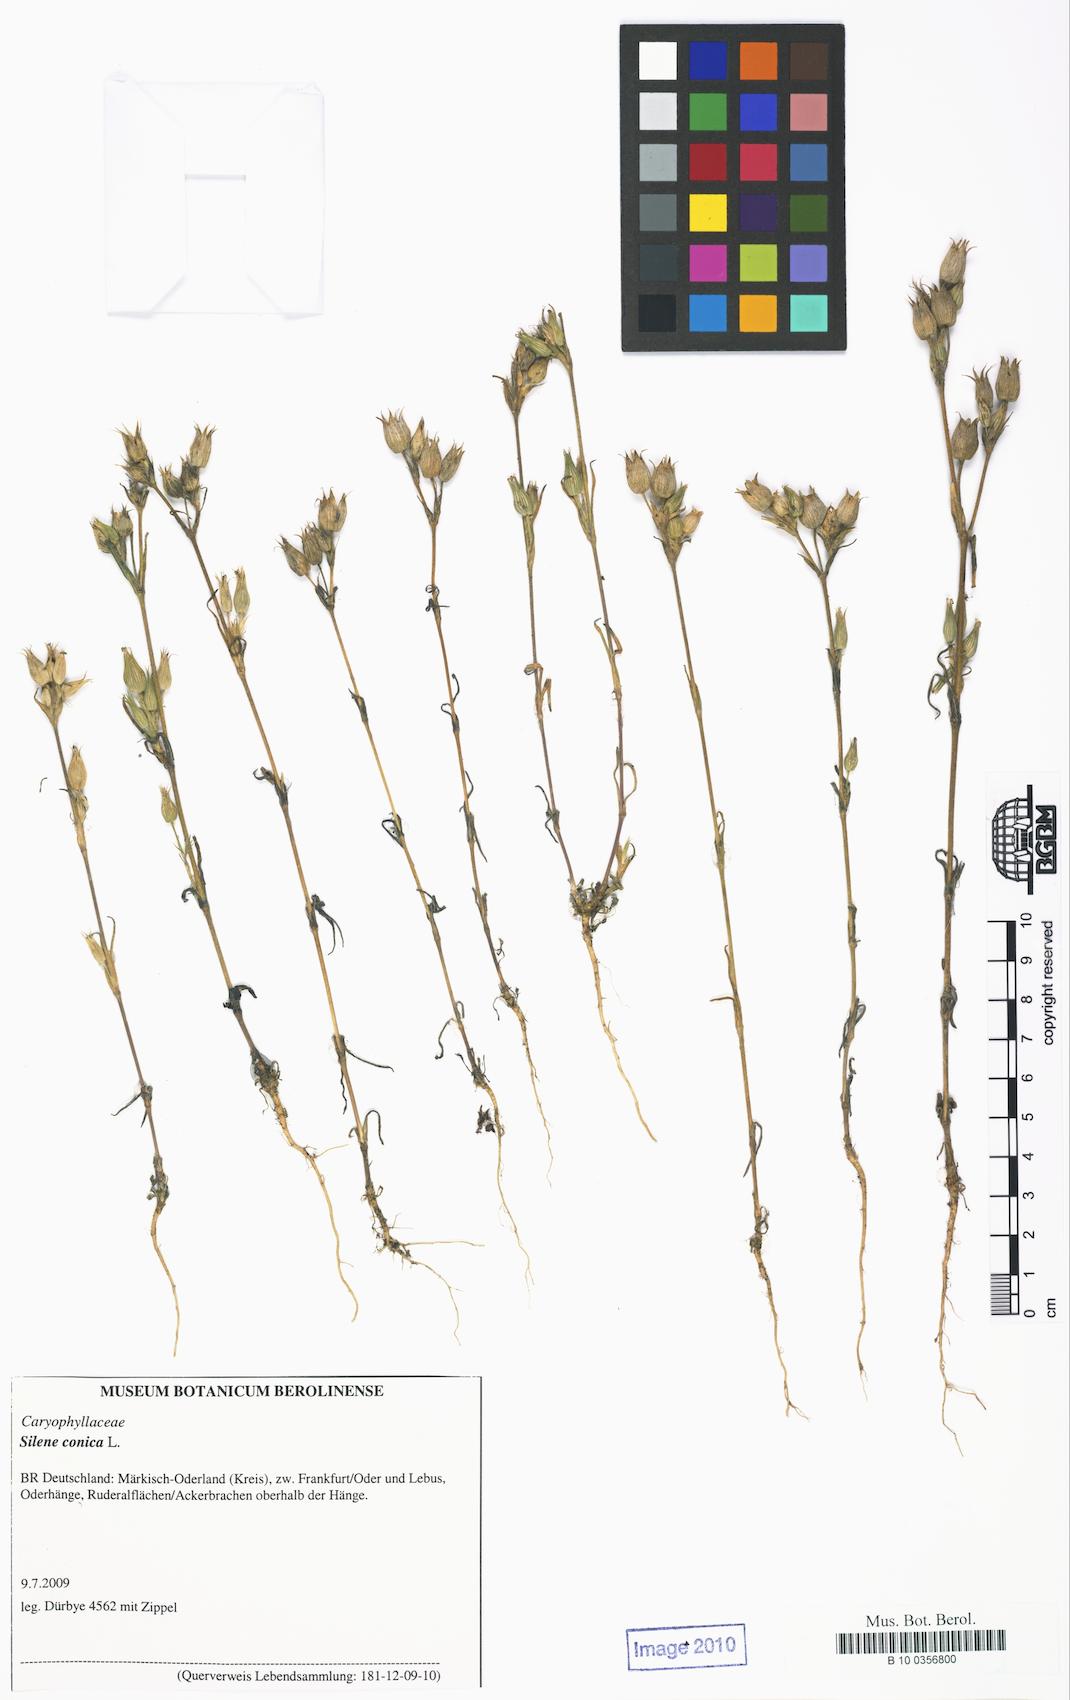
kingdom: Plantae
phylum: Tracheophyta
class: Magnoliopsida
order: Caryophyllales
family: Caryophyllaceae
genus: Silene
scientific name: Silene conica
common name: Sand catchfly
